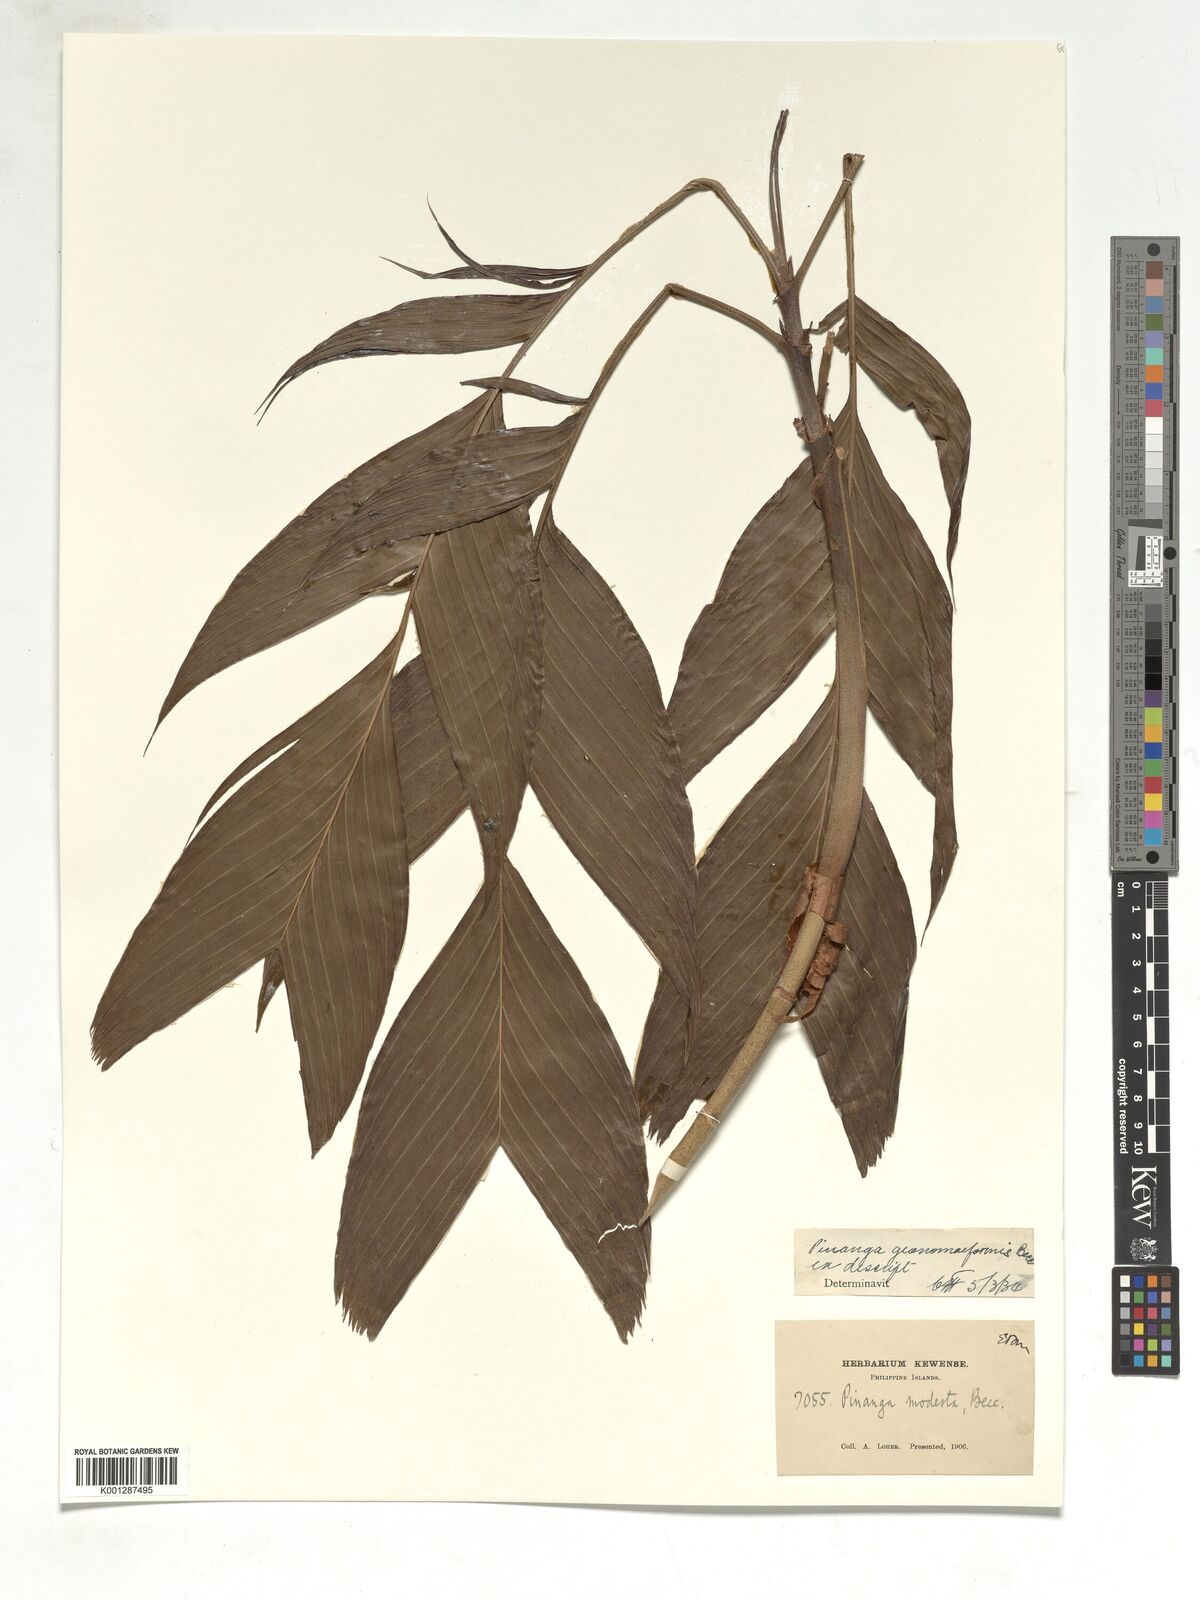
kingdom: Plantae
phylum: Tracheophyta
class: Liliopsida
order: Arecales
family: Arecaceae
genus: Pinanga
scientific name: Pinanga geonomiformis
